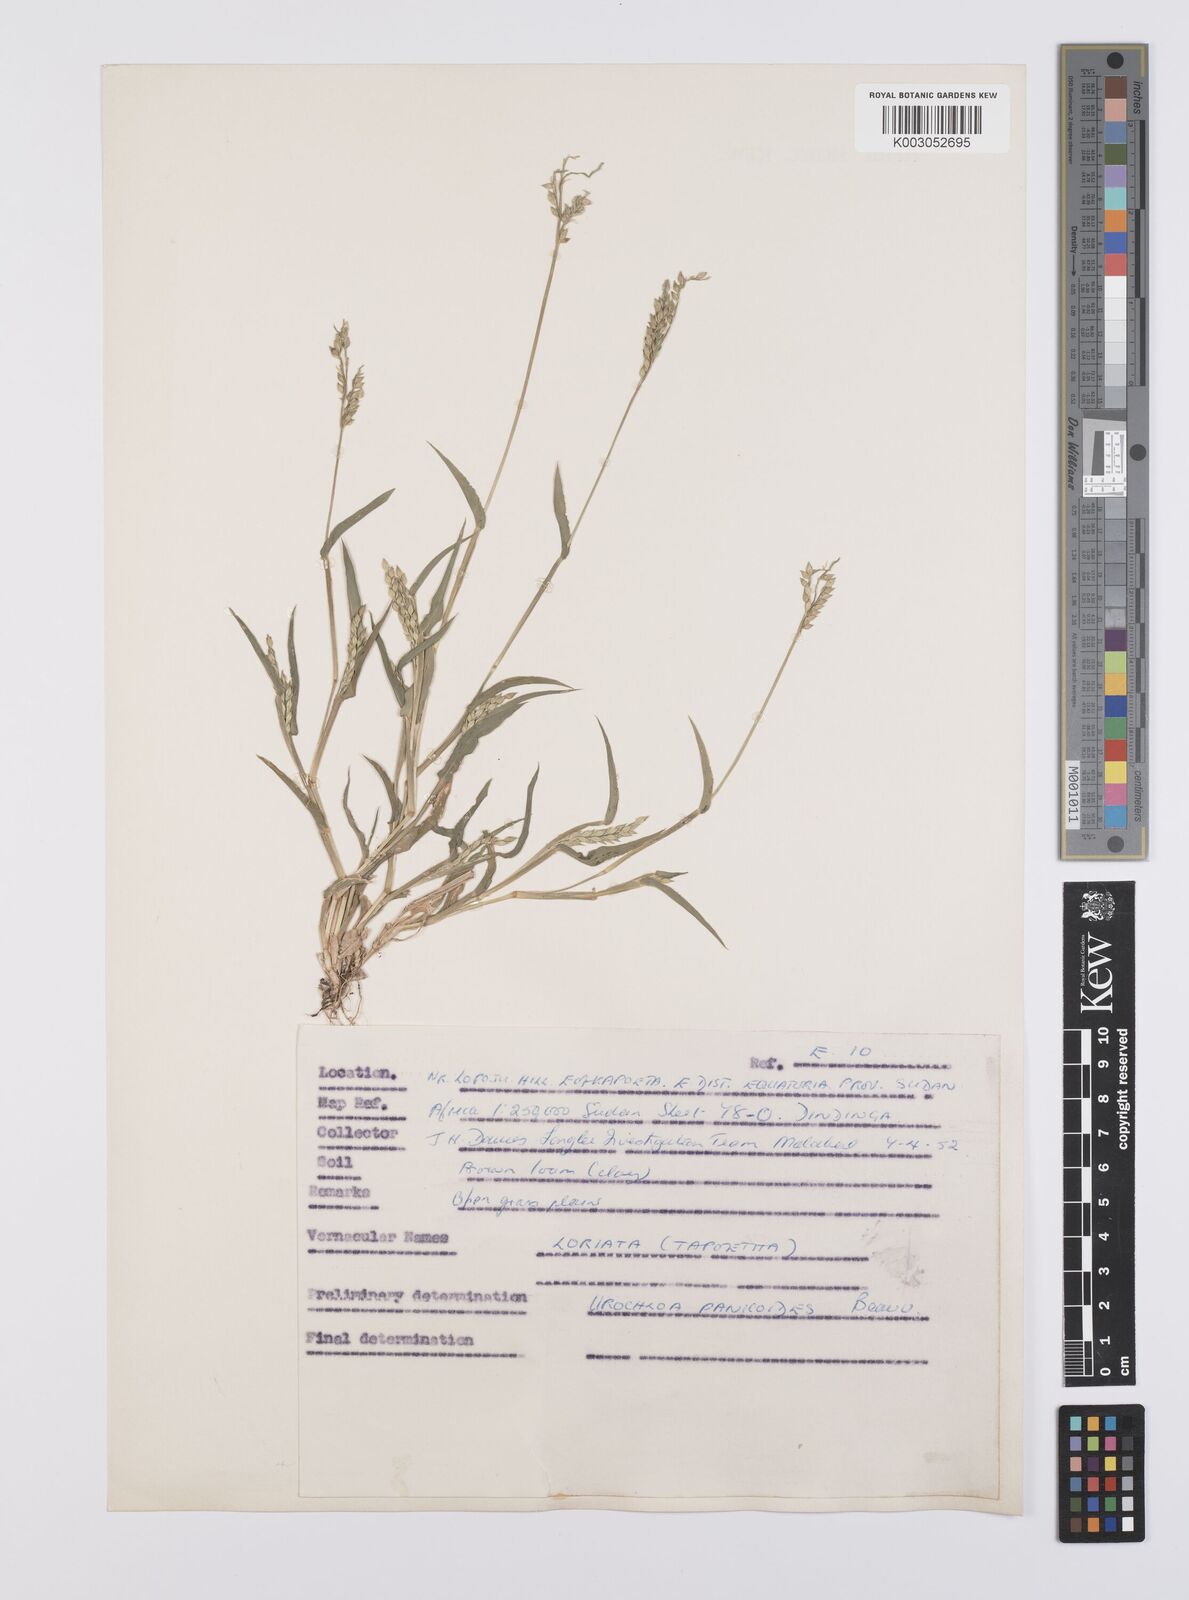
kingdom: Plantae
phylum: Tracheophyta
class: Liliopsida
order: Poales
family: Poaceae
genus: Urochloa
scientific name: Urochloa panicoides
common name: Sharp-flowered signal-grass
